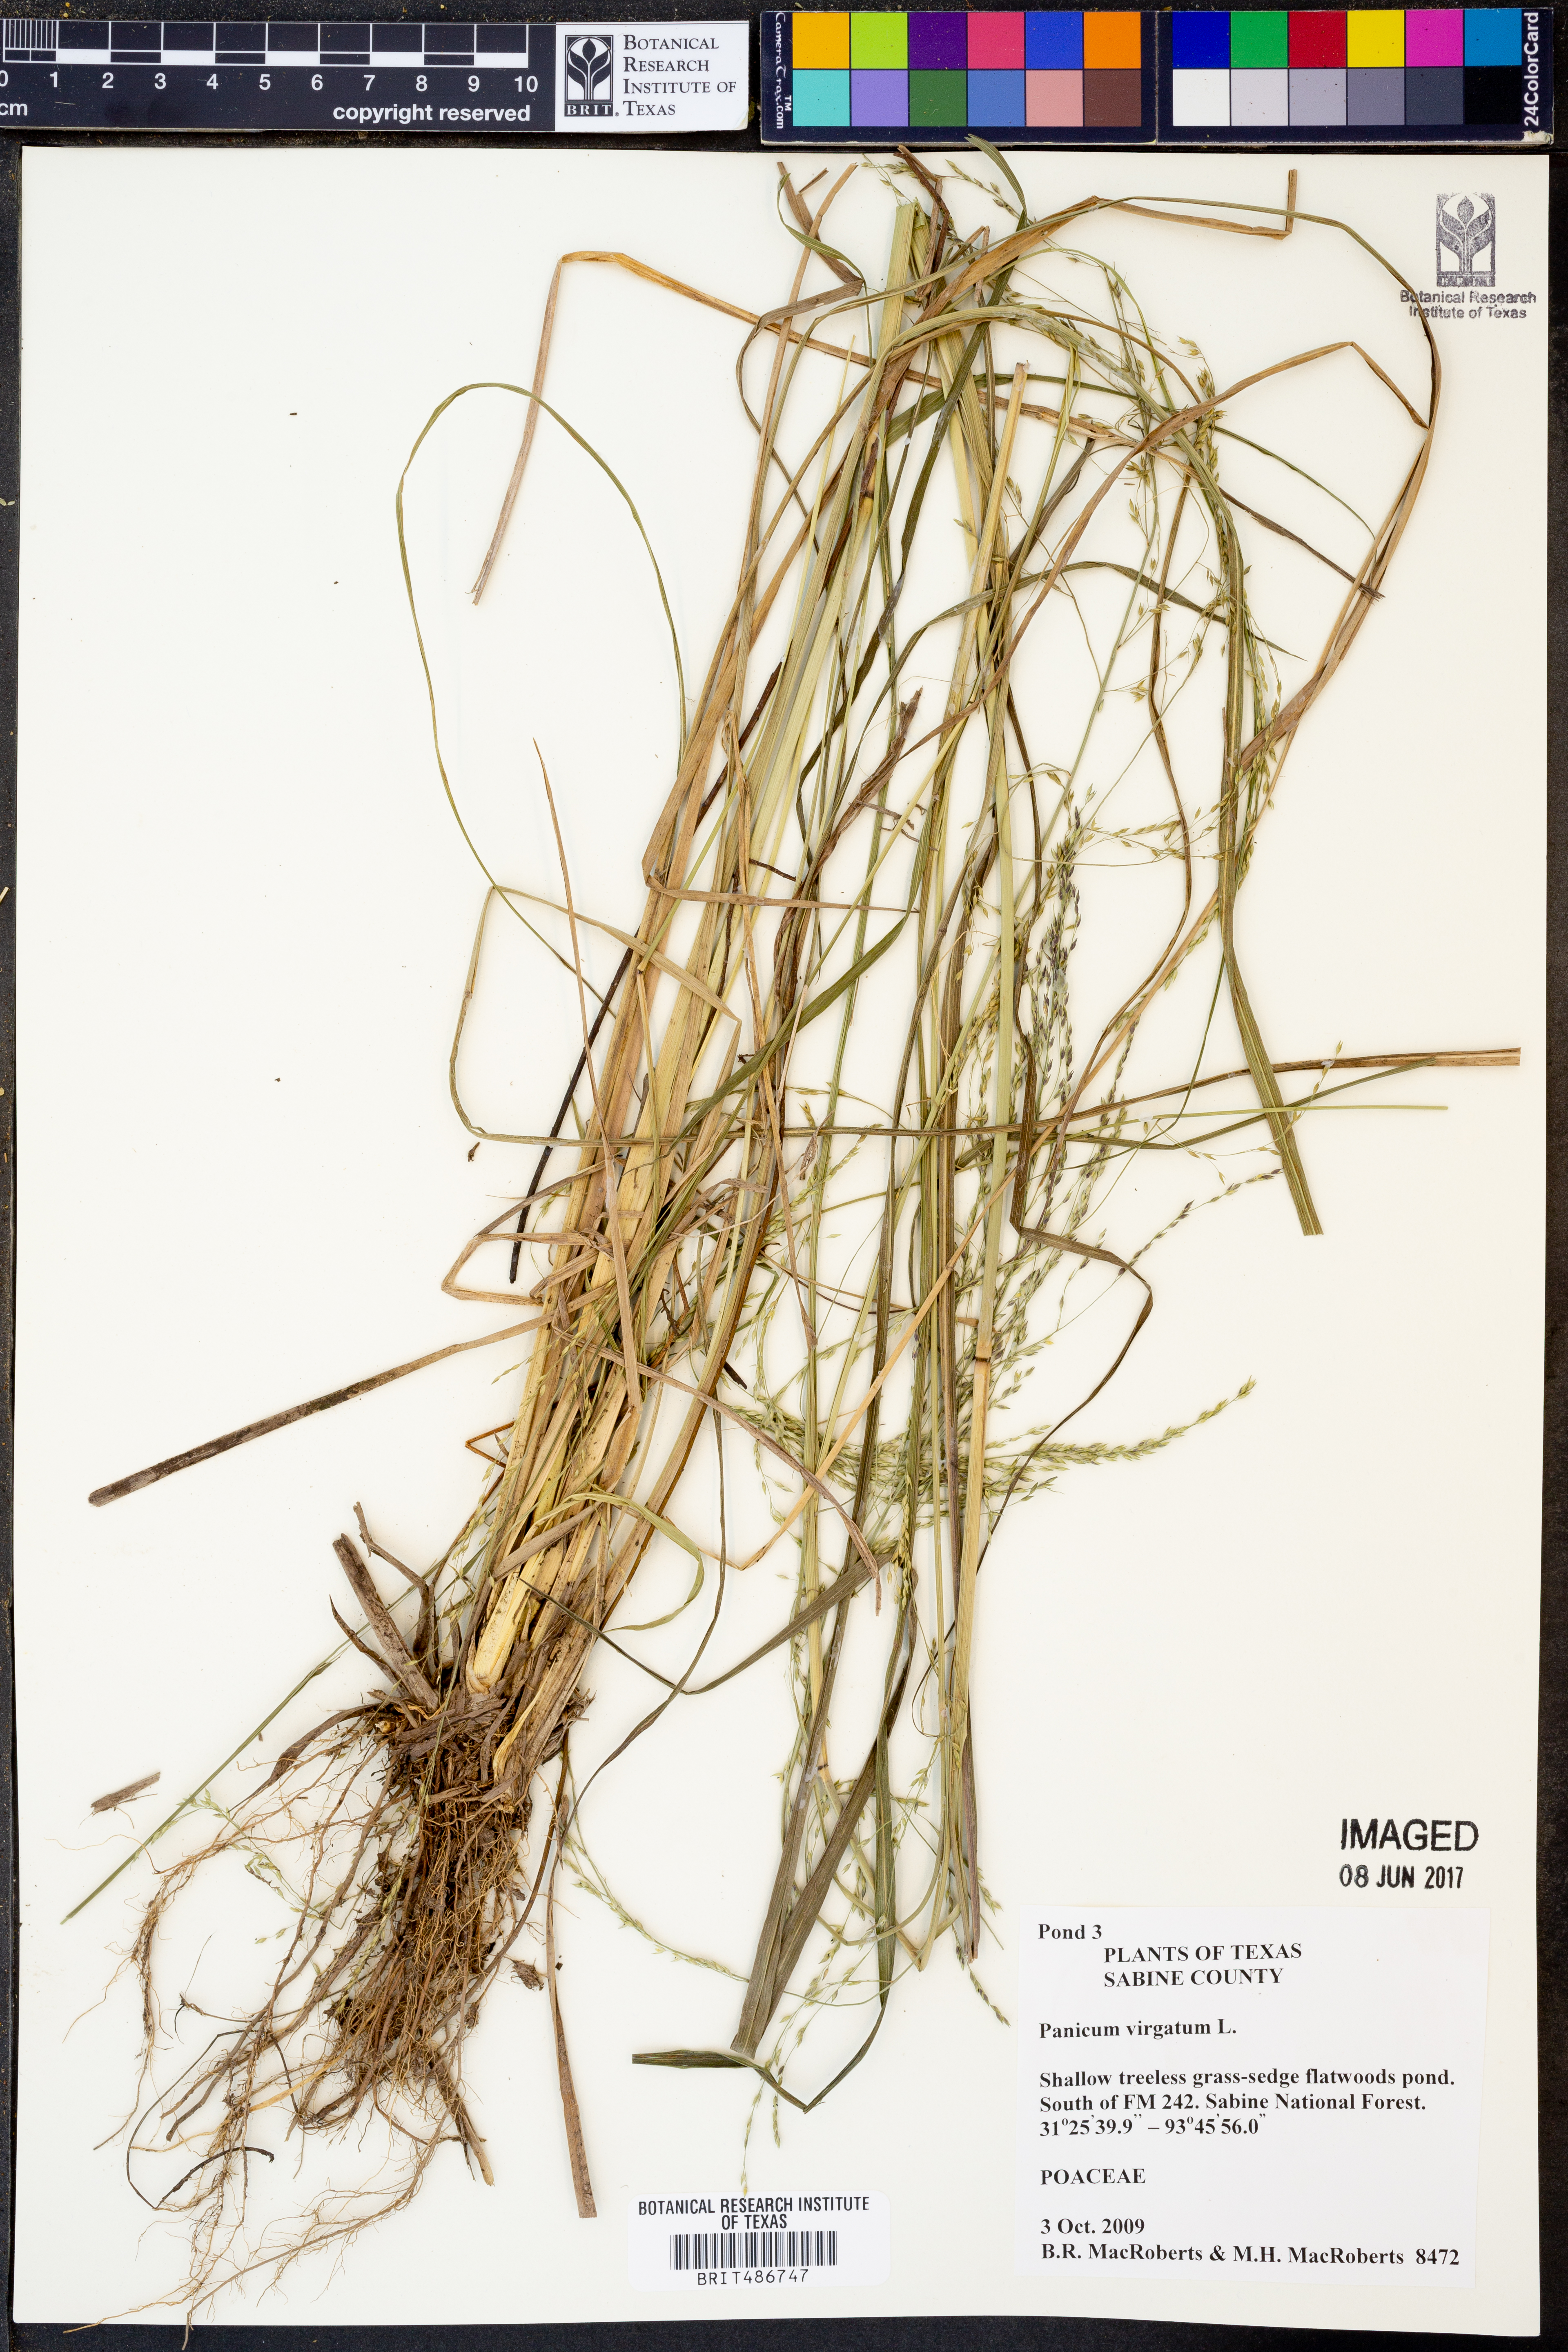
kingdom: Plantae
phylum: Tracheophyta
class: Liliopsida
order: Poales
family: Poaceae
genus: Panicum
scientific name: Panicum virgatum
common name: Switchgrass
